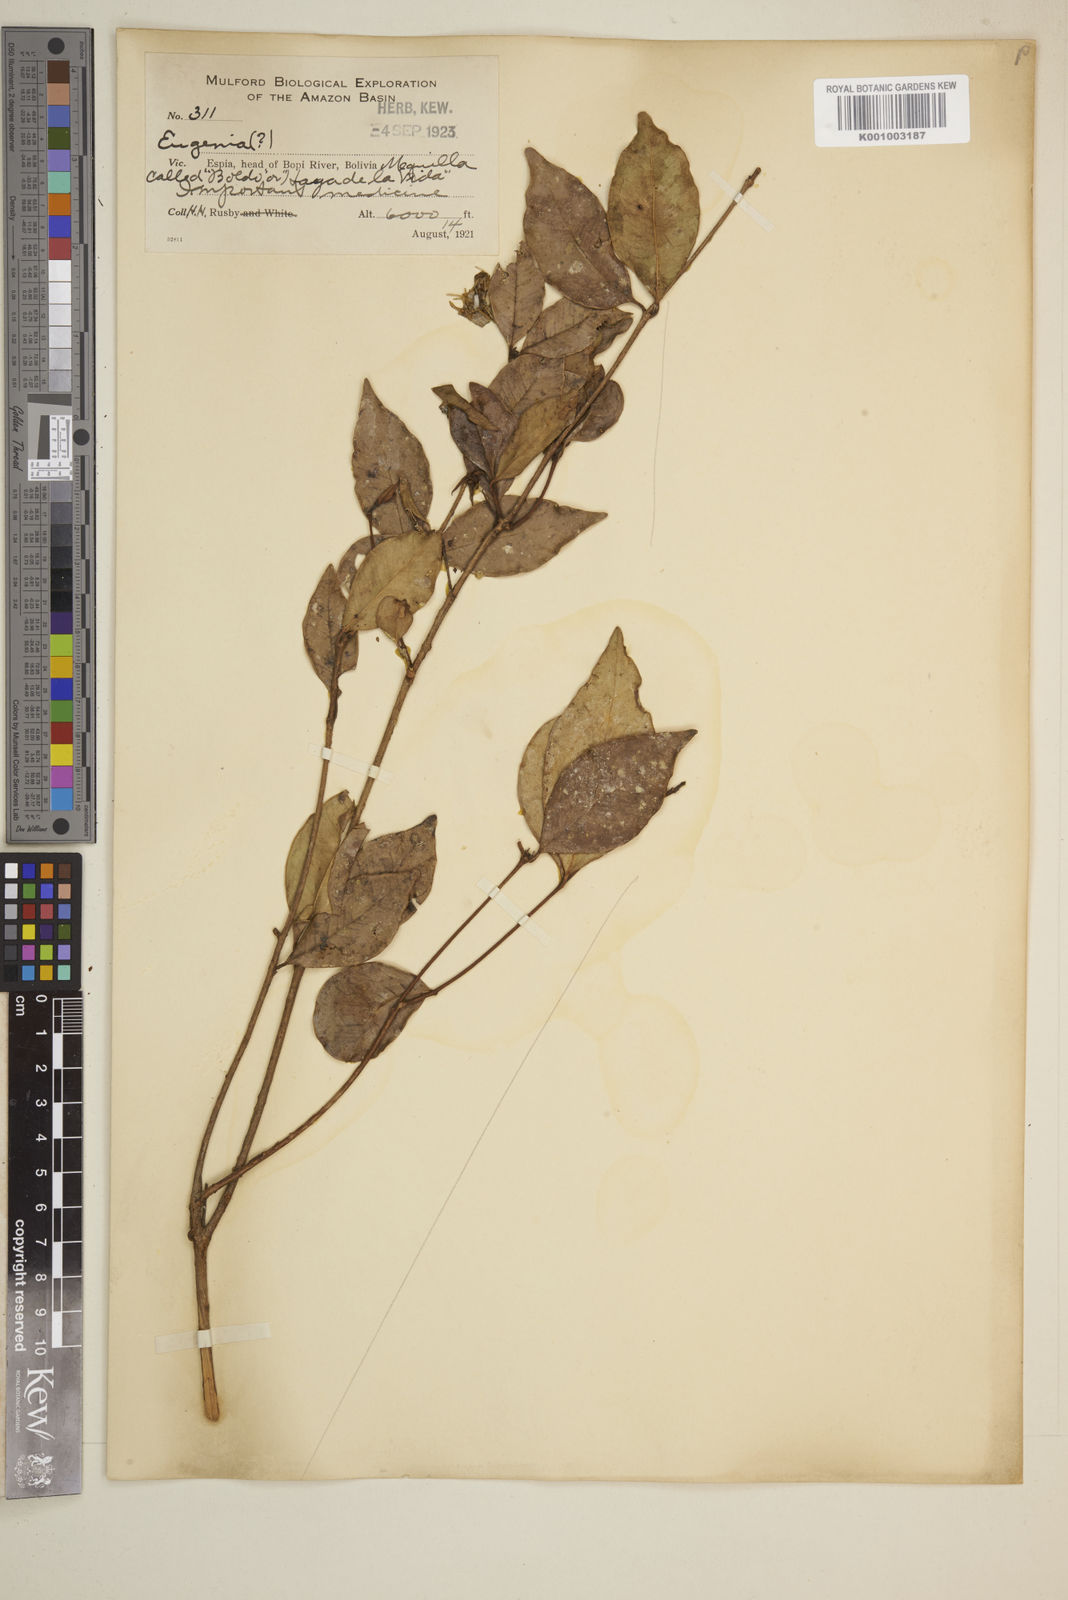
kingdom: Plantae
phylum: Tracheophyta
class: Magnoliopsida
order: Myrtales
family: Myrtaceae
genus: Eugenia
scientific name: Eugenia
